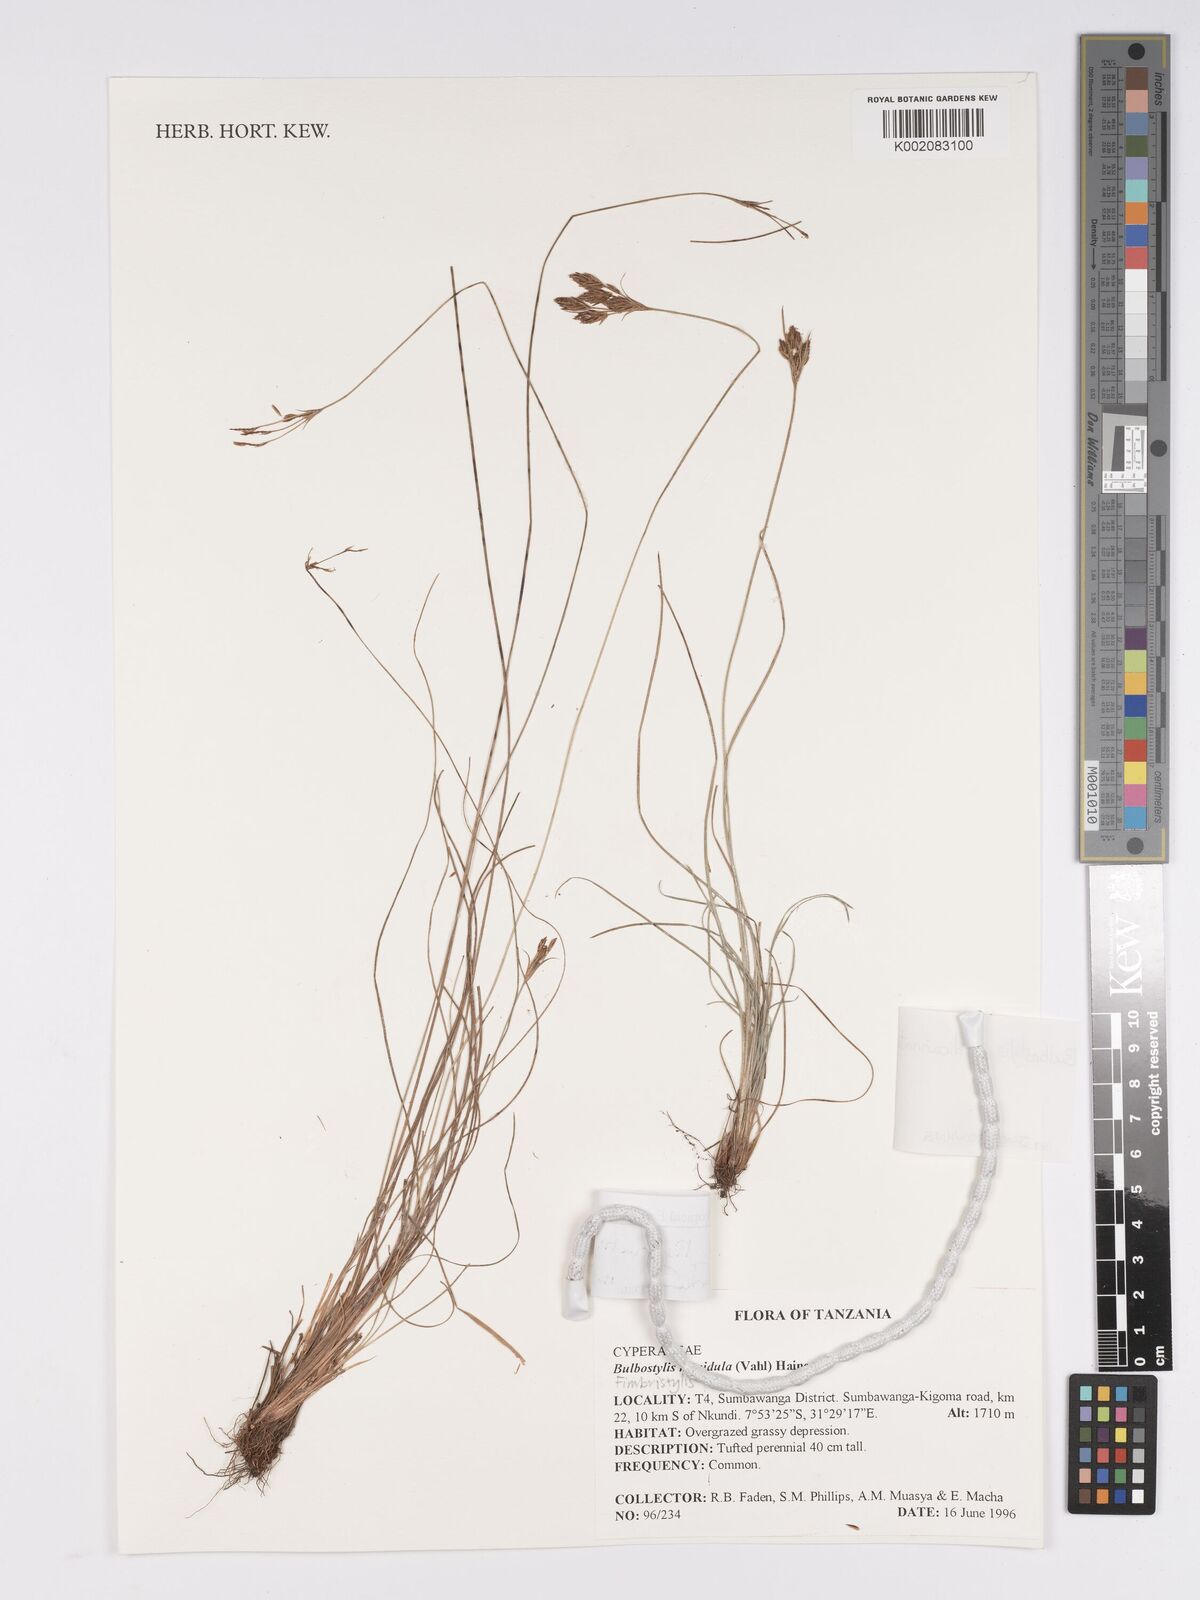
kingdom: Plantae
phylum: Tracheophyta
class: Liliopsida
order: Poales
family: Cyperaceae
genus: Bulbostylis
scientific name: Bulbostylis viridecarinata
